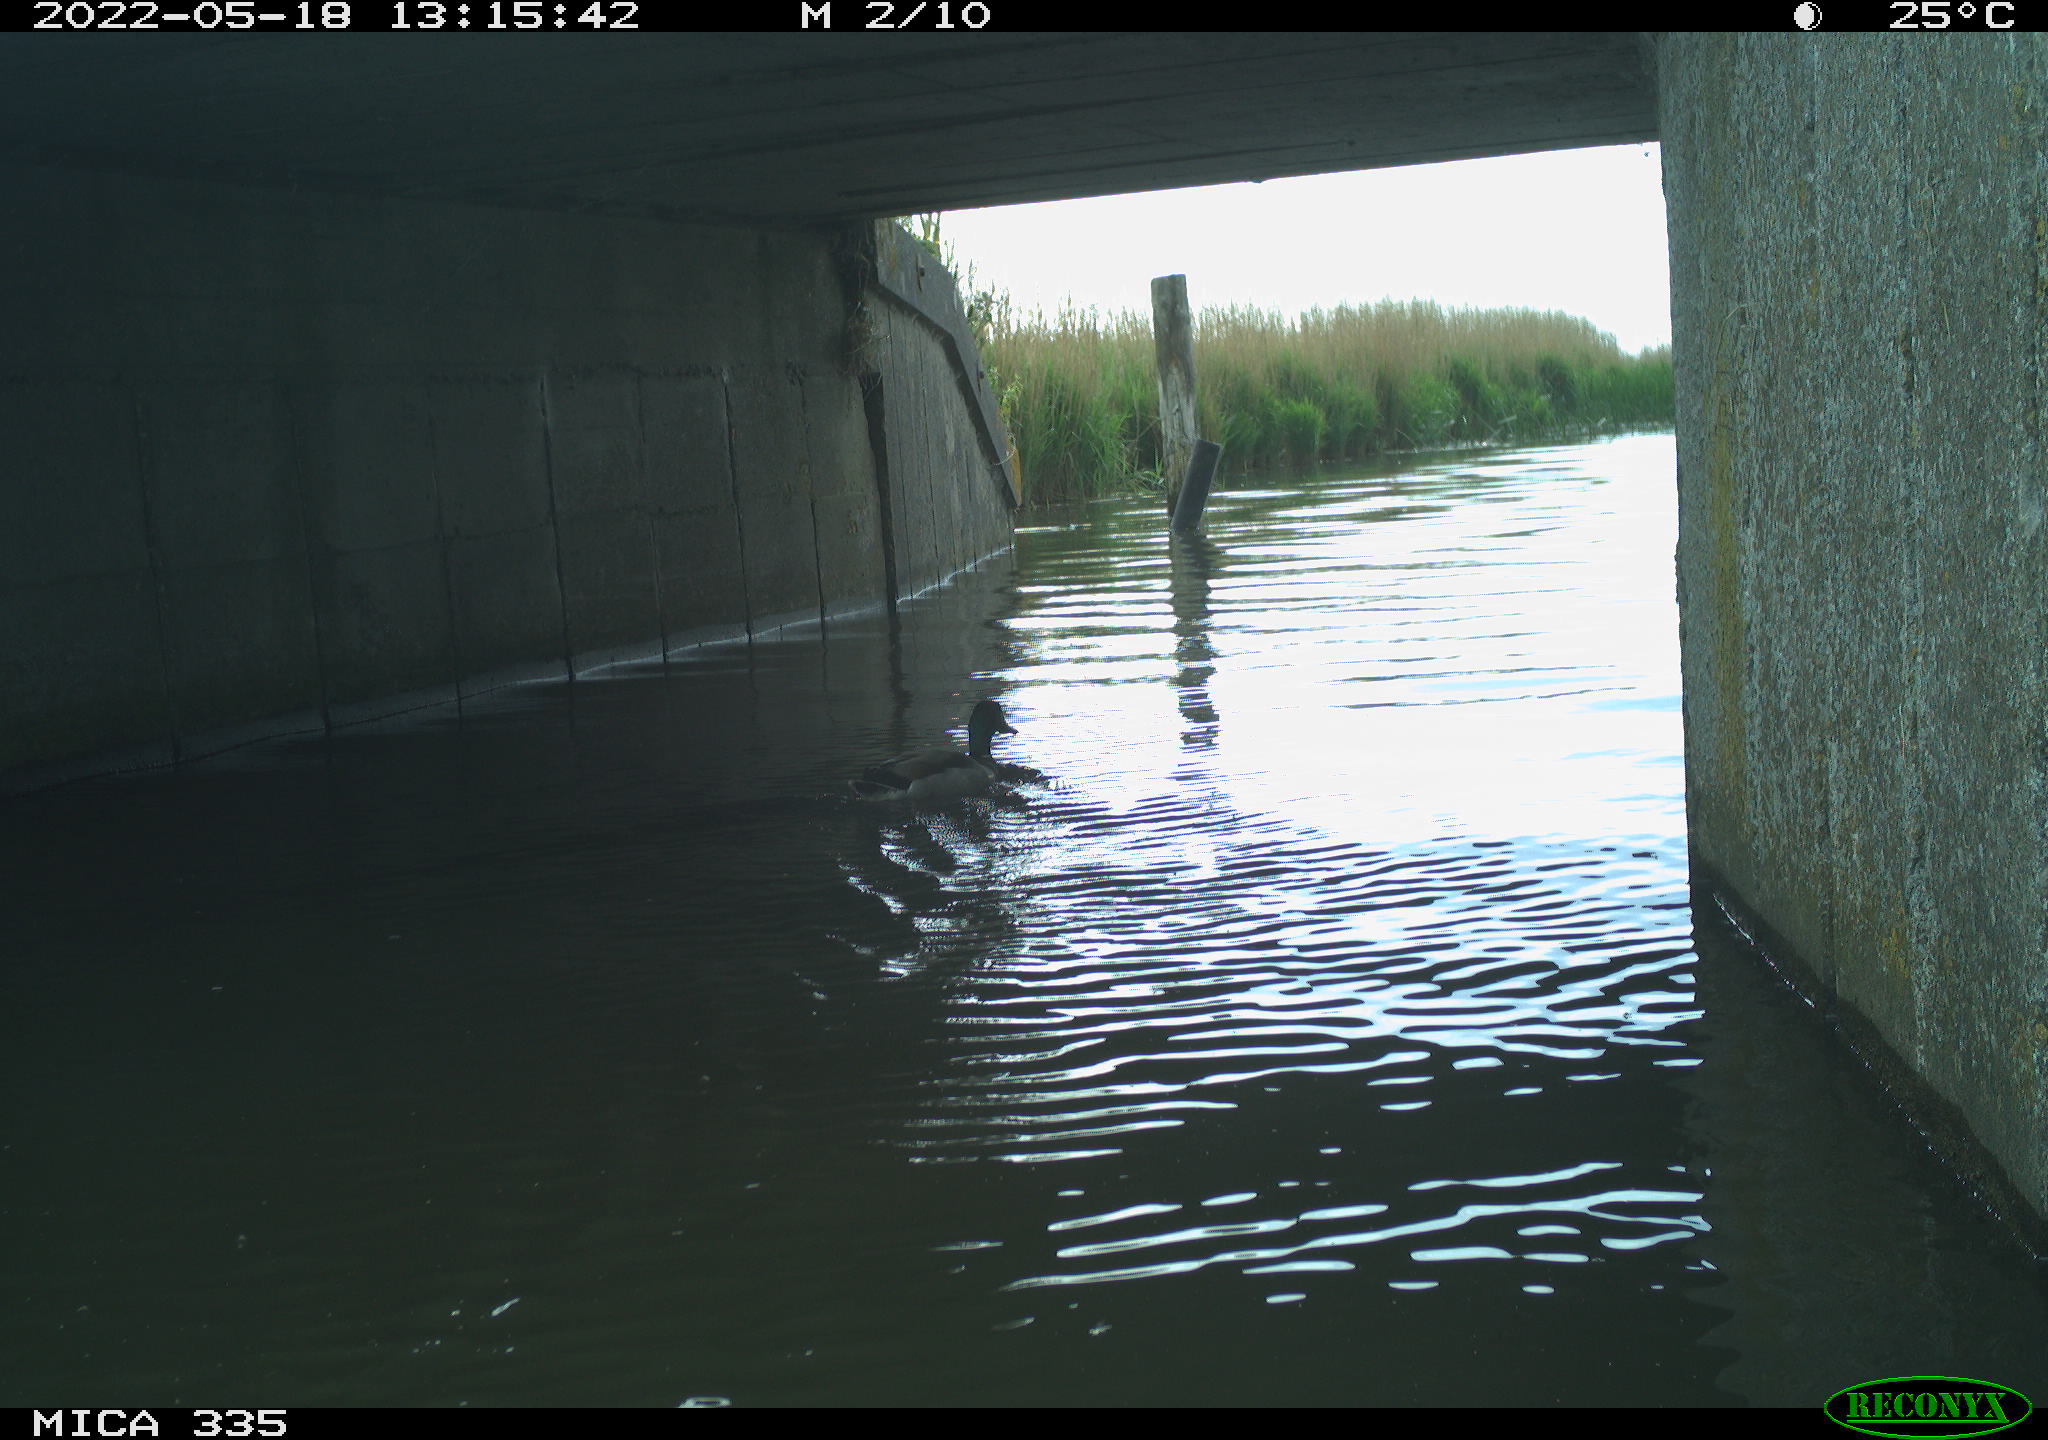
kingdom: Animalia
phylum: Chordata
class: Aves
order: Anseriformes
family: Anatidae
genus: Anas
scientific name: Anas platyrhynchos
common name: Mallard
